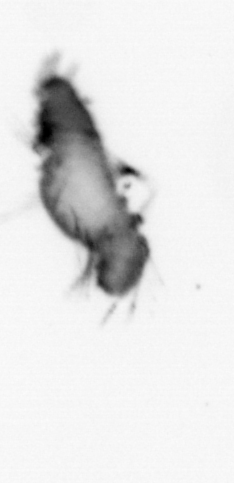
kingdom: Animalia
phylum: Annelida
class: Polychaeta
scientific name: Polychaeta
